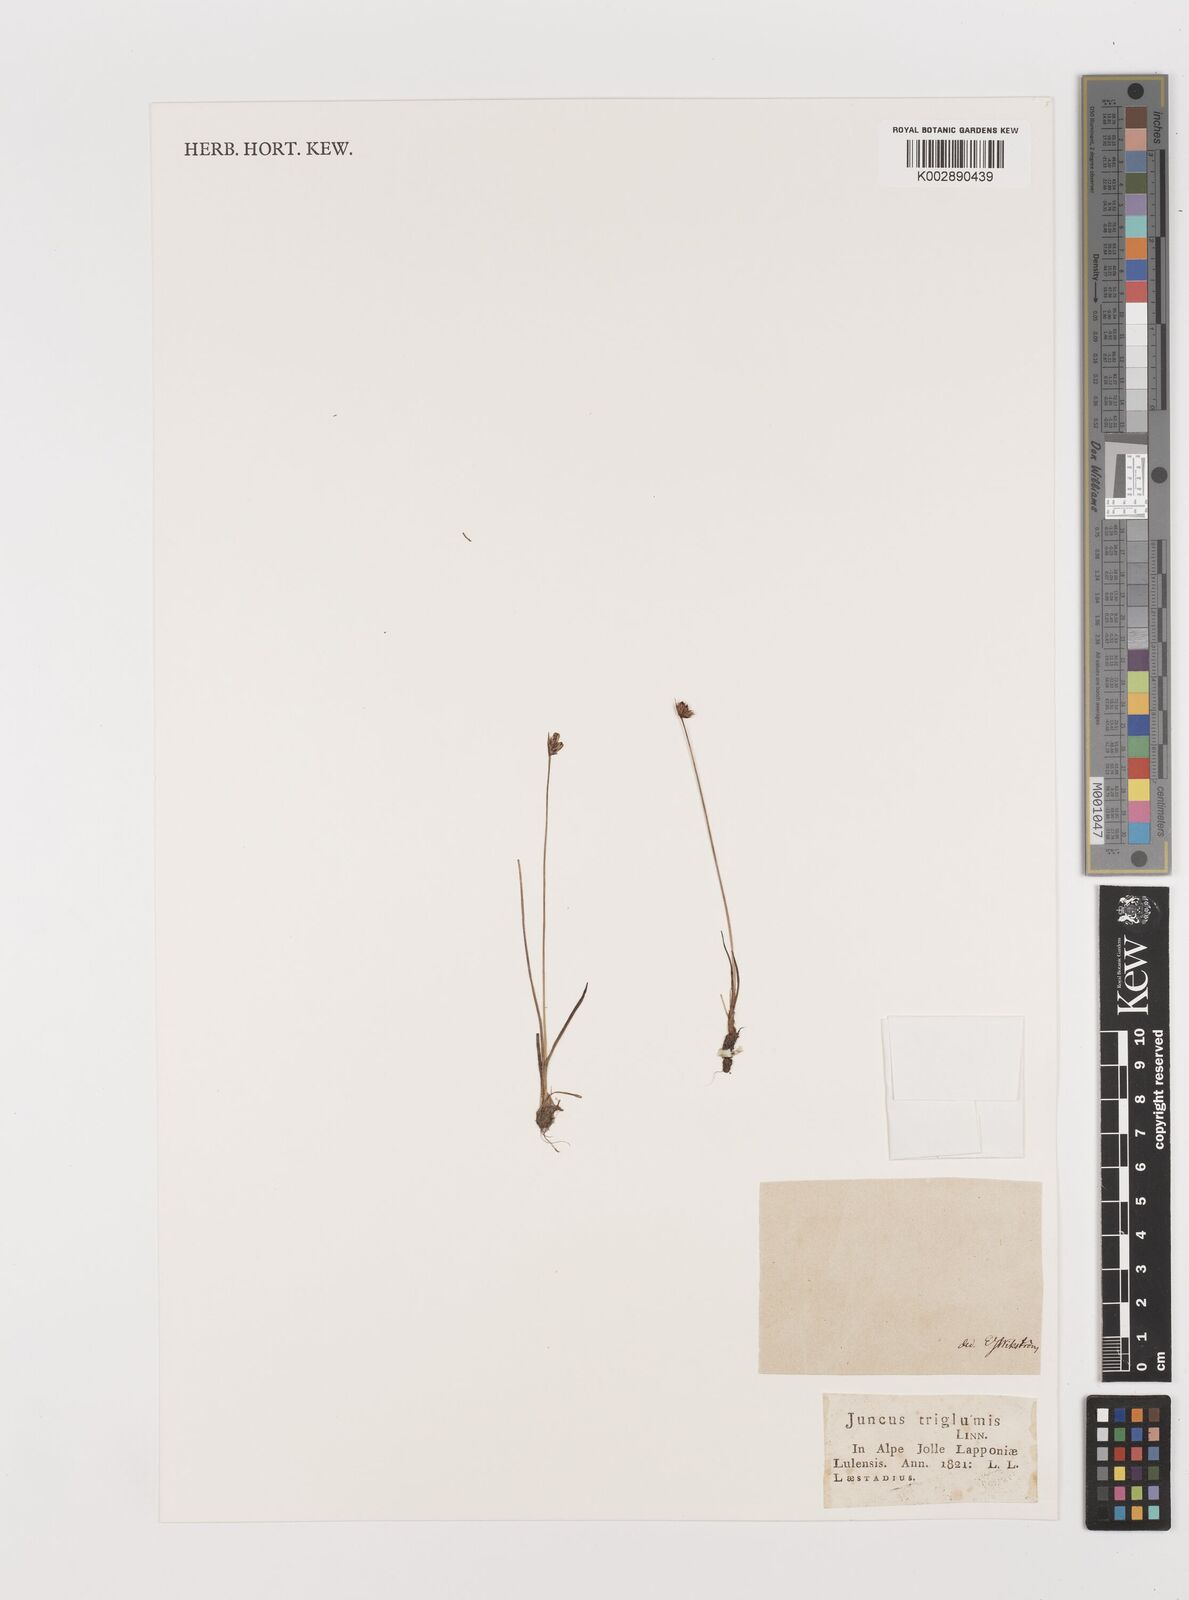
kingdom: Plantae
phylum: Tracheophyta
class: Liliopsida
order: Poales
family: Juncaceae
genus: Juncus
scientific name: Juncus triglumis
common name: Three-flowered rush
